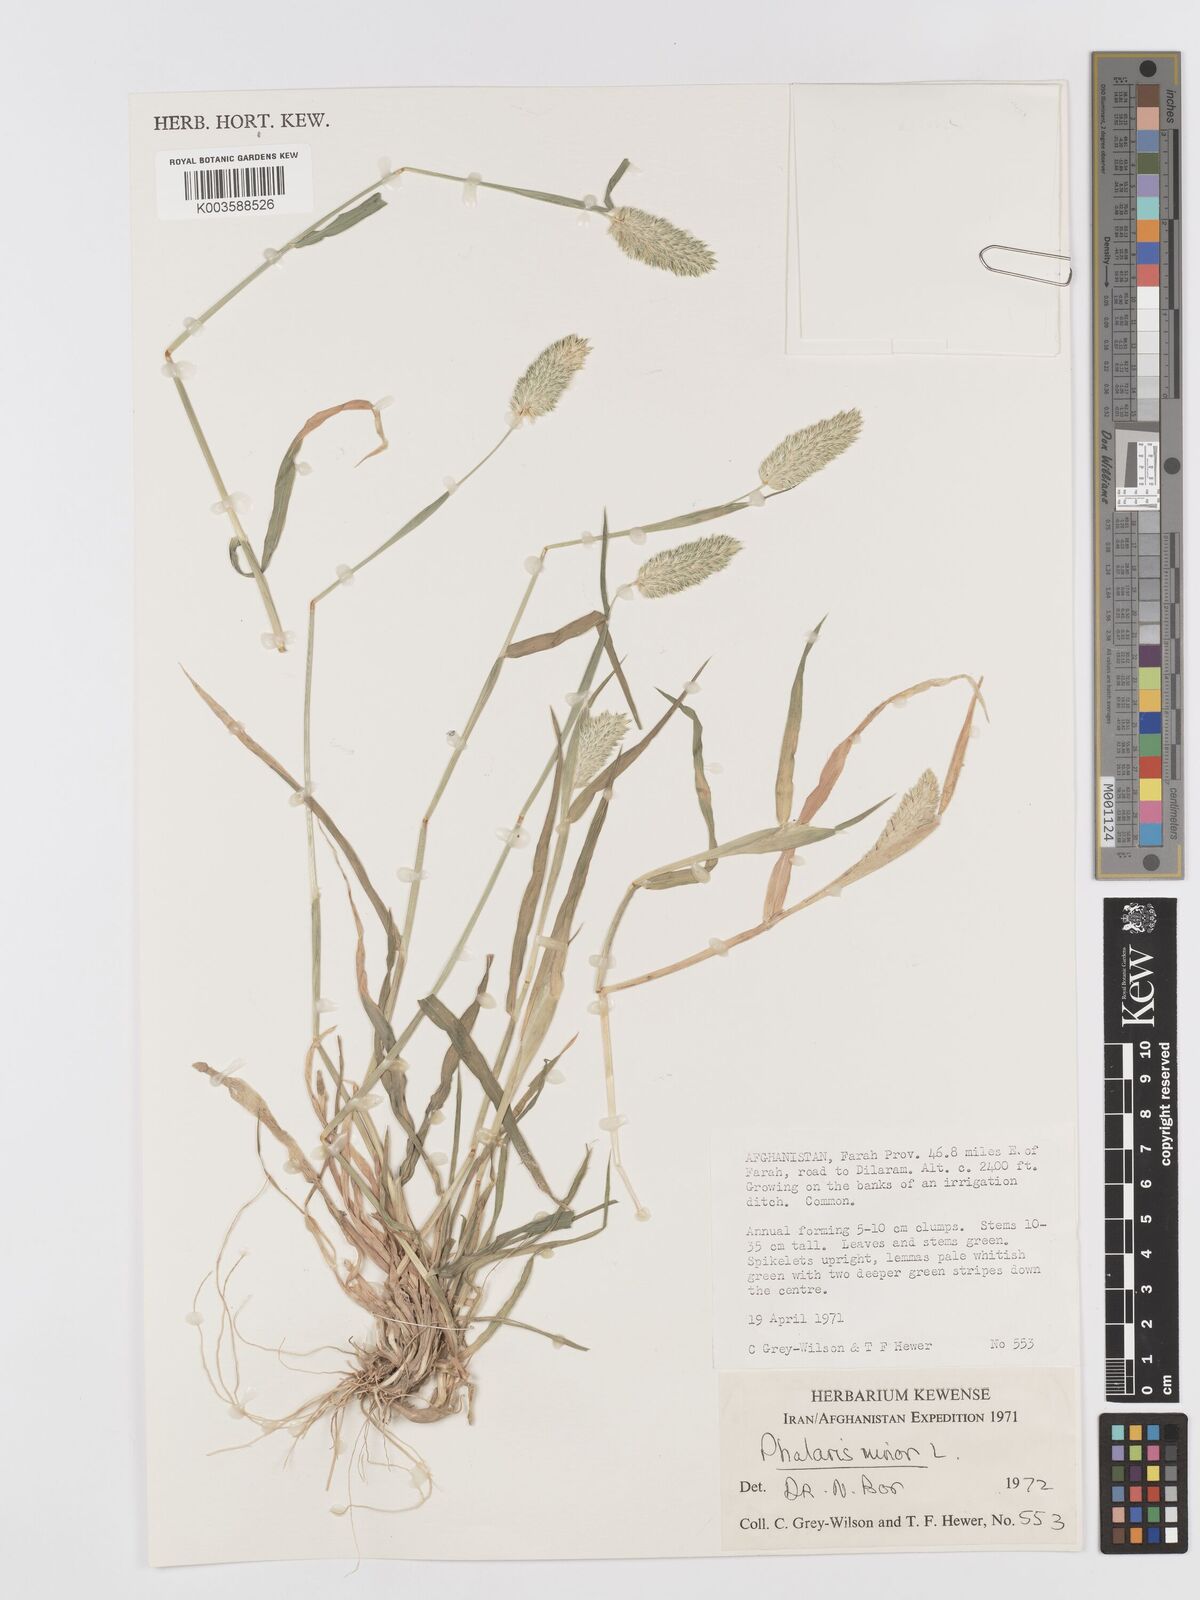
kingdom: Plantae
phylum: Tracheophyta
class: Liliopsida
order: Poales
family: Poaceae
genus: Phalaris
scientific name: Phalaris minor
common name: Littleseed canarygrass
